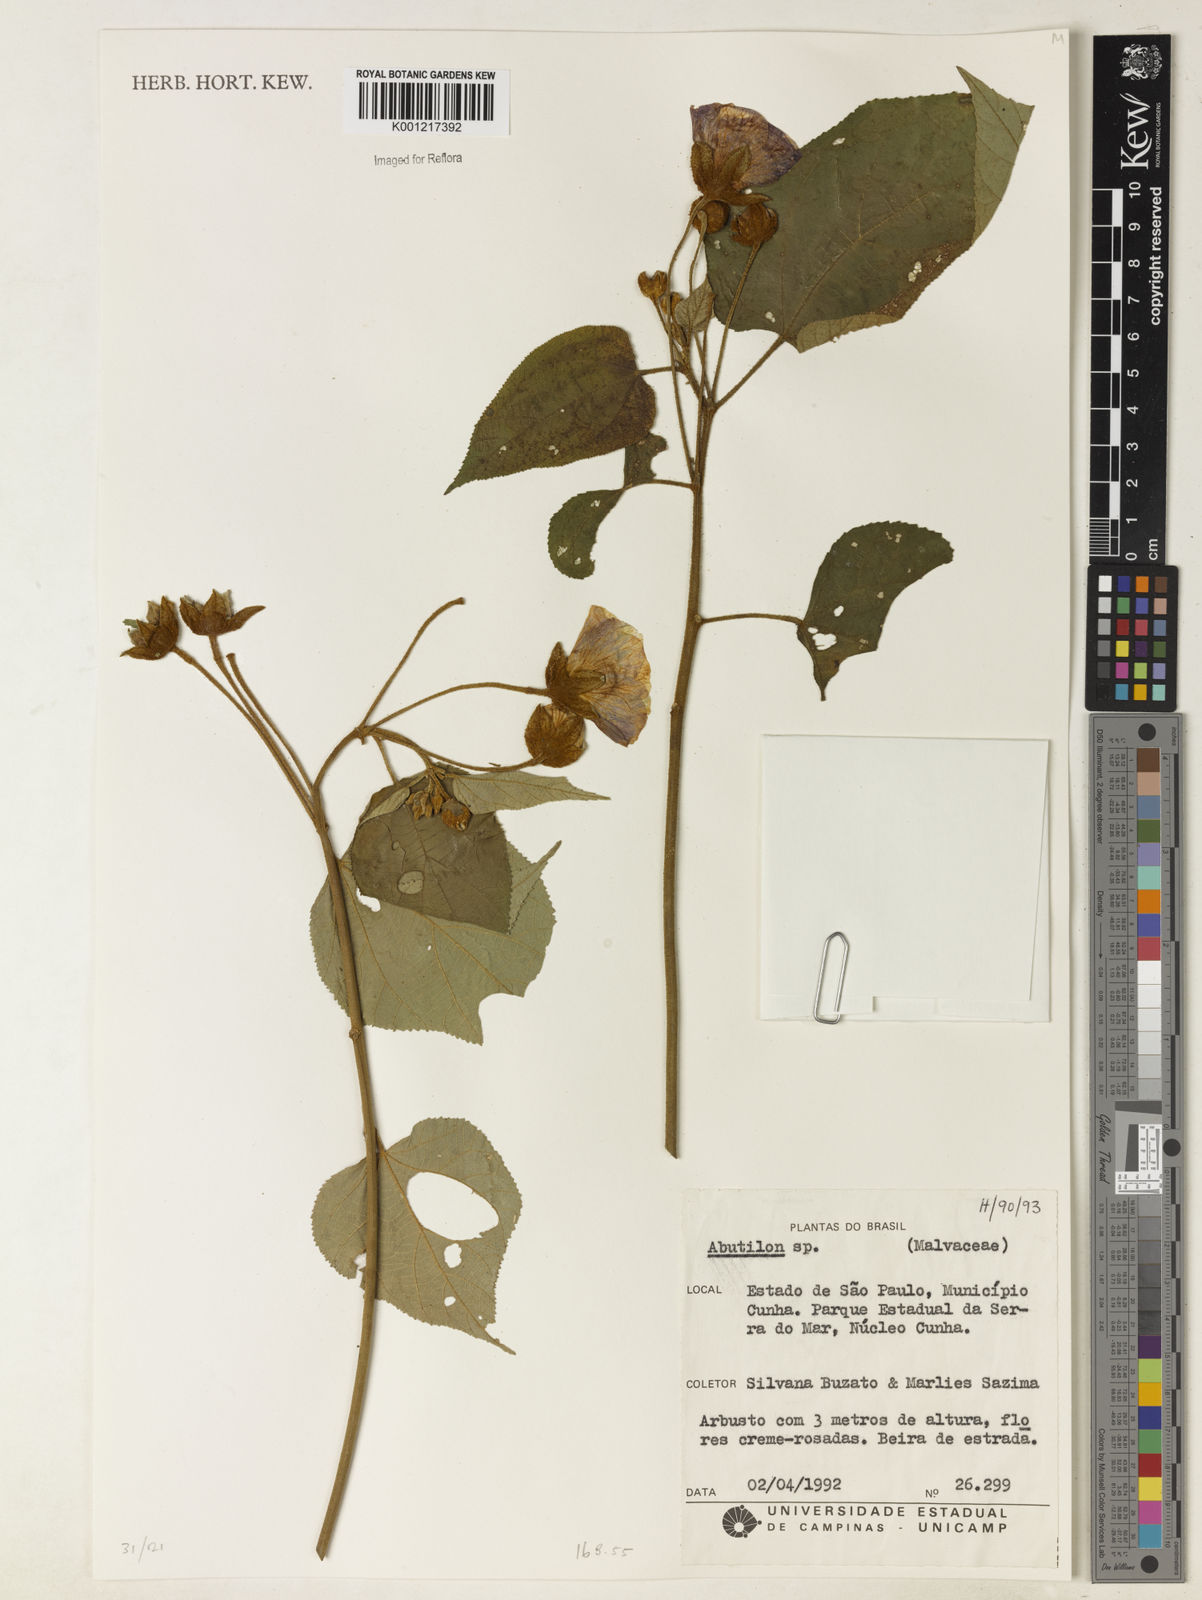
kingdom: Plantae
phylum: Tracheophyta
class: Magnoliopsida
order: Malvales
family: Malvaceae
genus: Abutilon
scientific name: Abutilon
